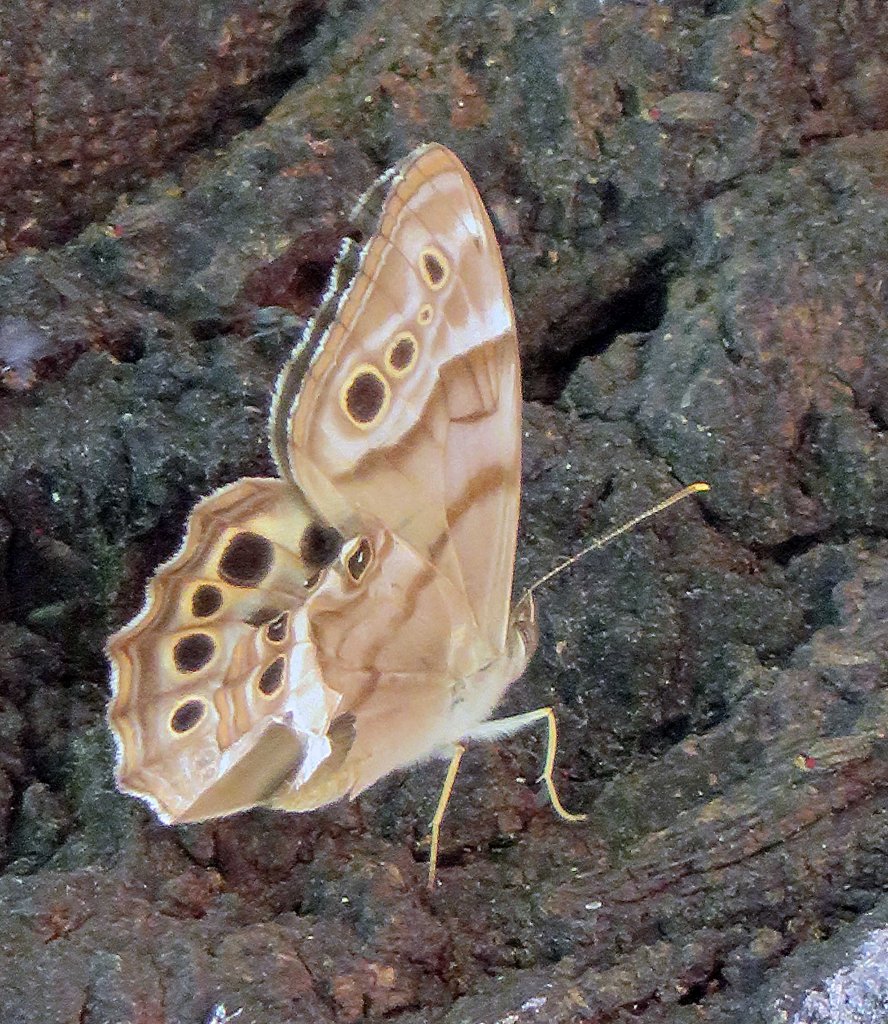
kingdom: Animalia
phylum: Arthropoda
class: Insecta
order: Lepidoptera
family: Nymphalidae
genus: Enodia
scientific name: Enodia portlandia
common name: Southern Pearly Eye
